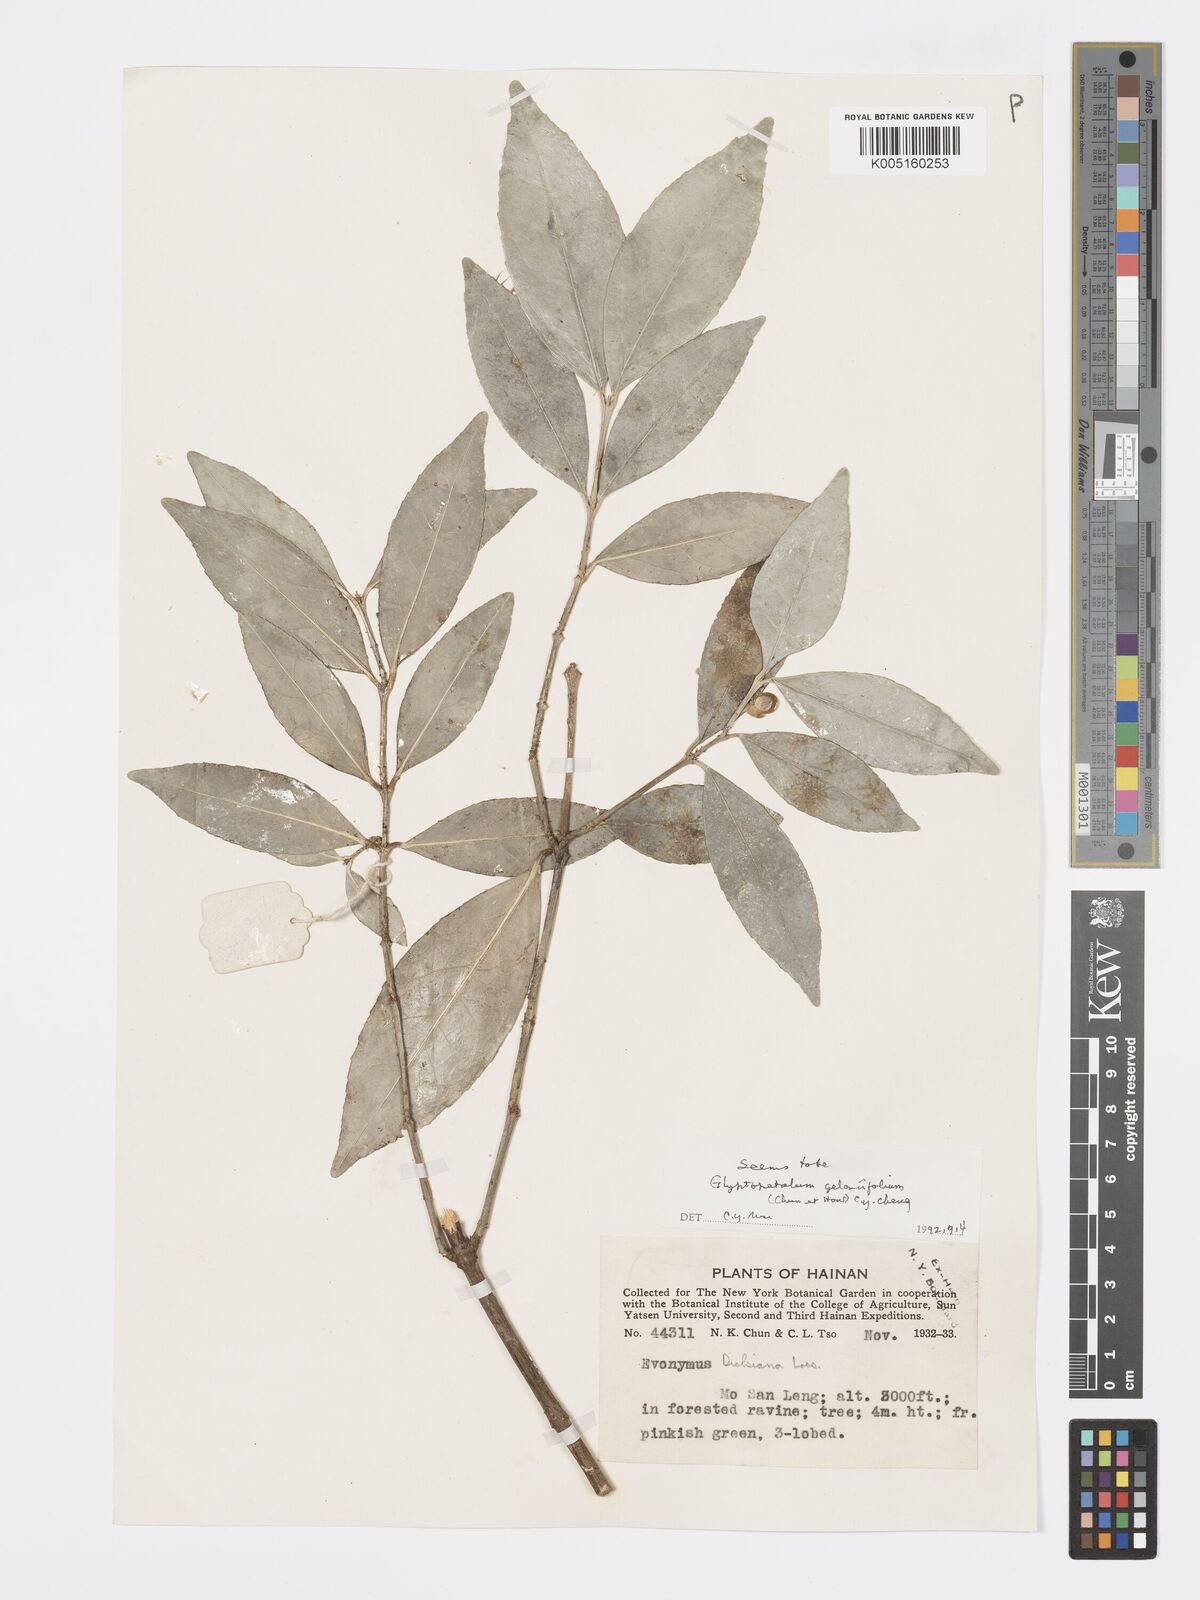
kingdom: Plantae
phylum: Tracheophyta
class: Magnoliopsida
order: Celastrales
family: Celastraceae
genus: Euonymus
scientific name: Euonymus dielsianus
